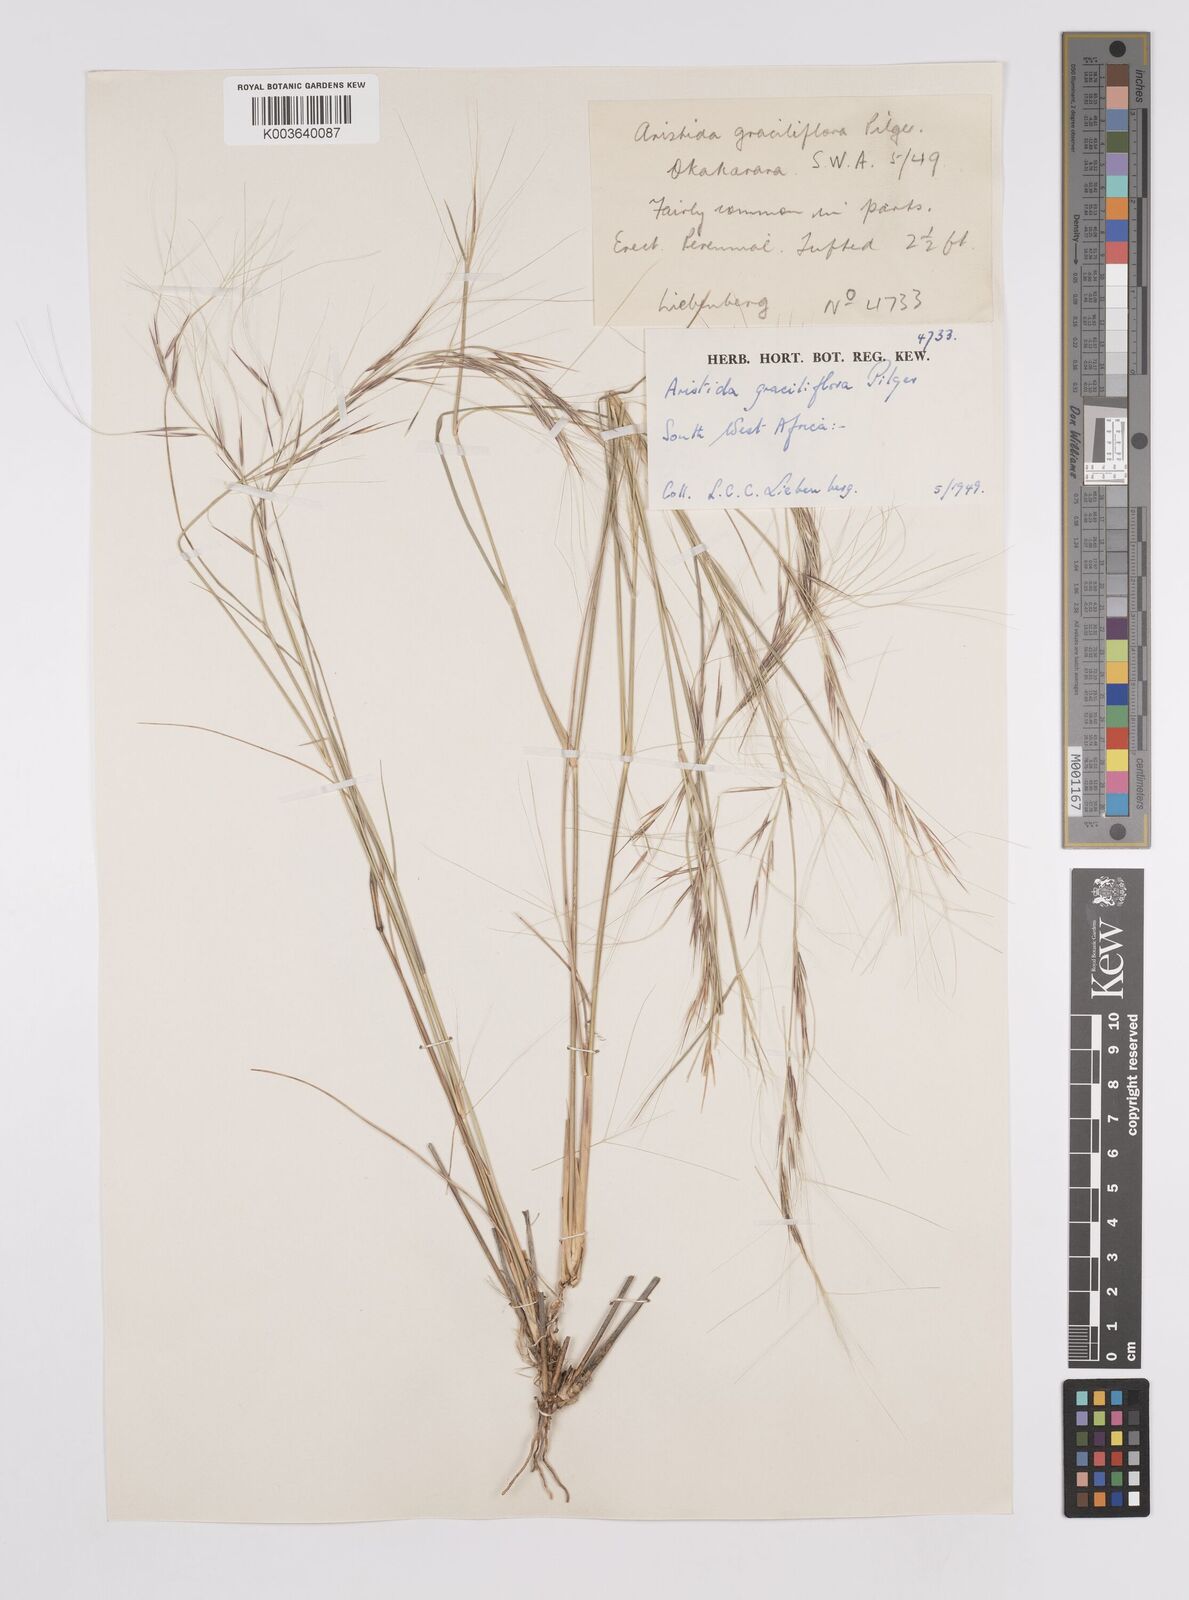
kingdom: Plantae
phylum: Tracheophyta
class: Liliopsida
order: Poales
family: Poaceae
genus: Aristida
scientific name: Aristida stipitata
